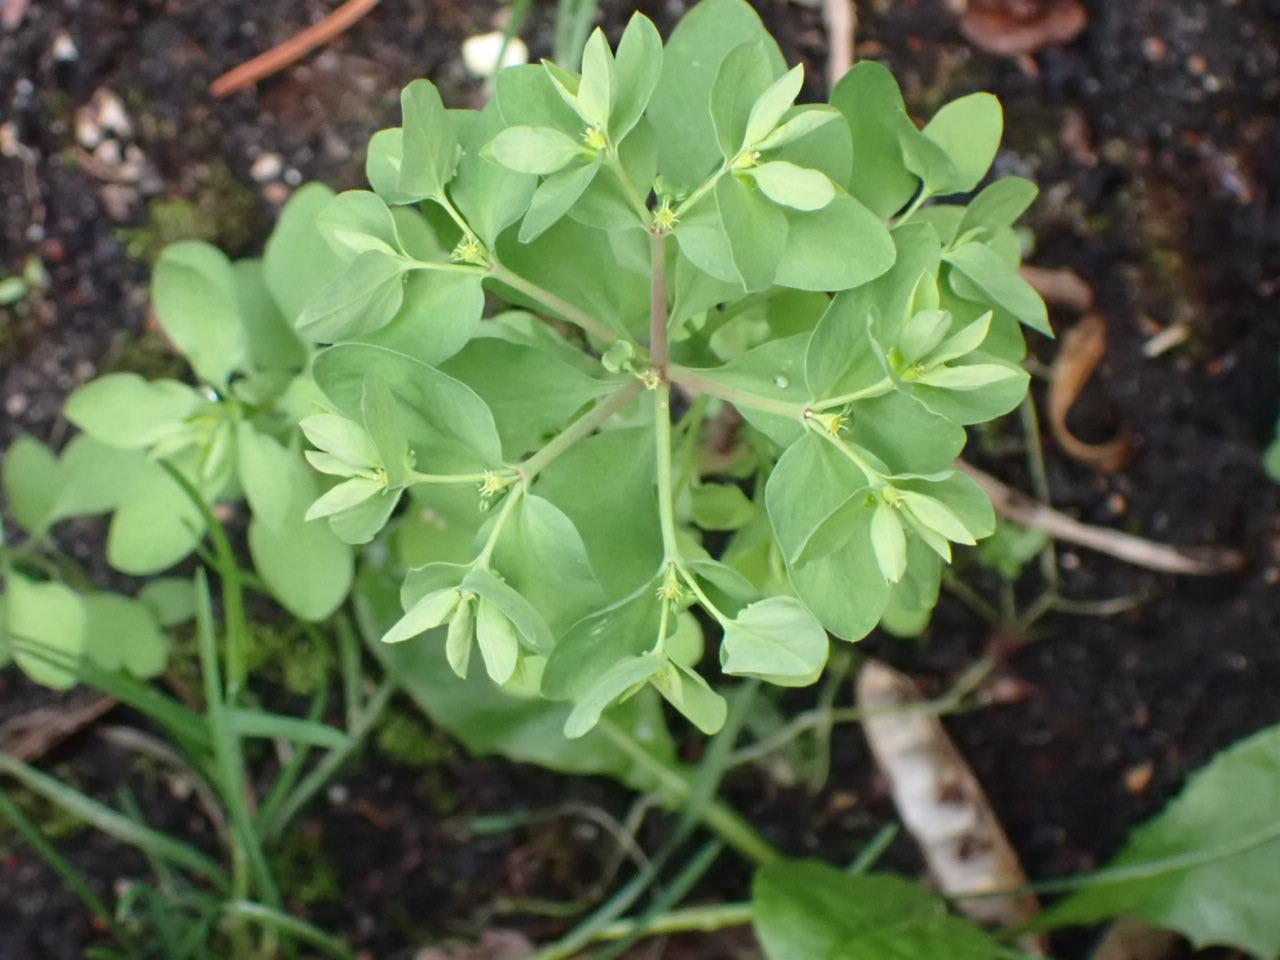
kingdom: Plantae
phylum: Tracheophyta
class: Magnoliopsida
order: Malpighiales
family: Euphorbiaceae
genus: Euphorbia
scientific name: Euphorbia peplus
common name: Gaffel-vortemælk
